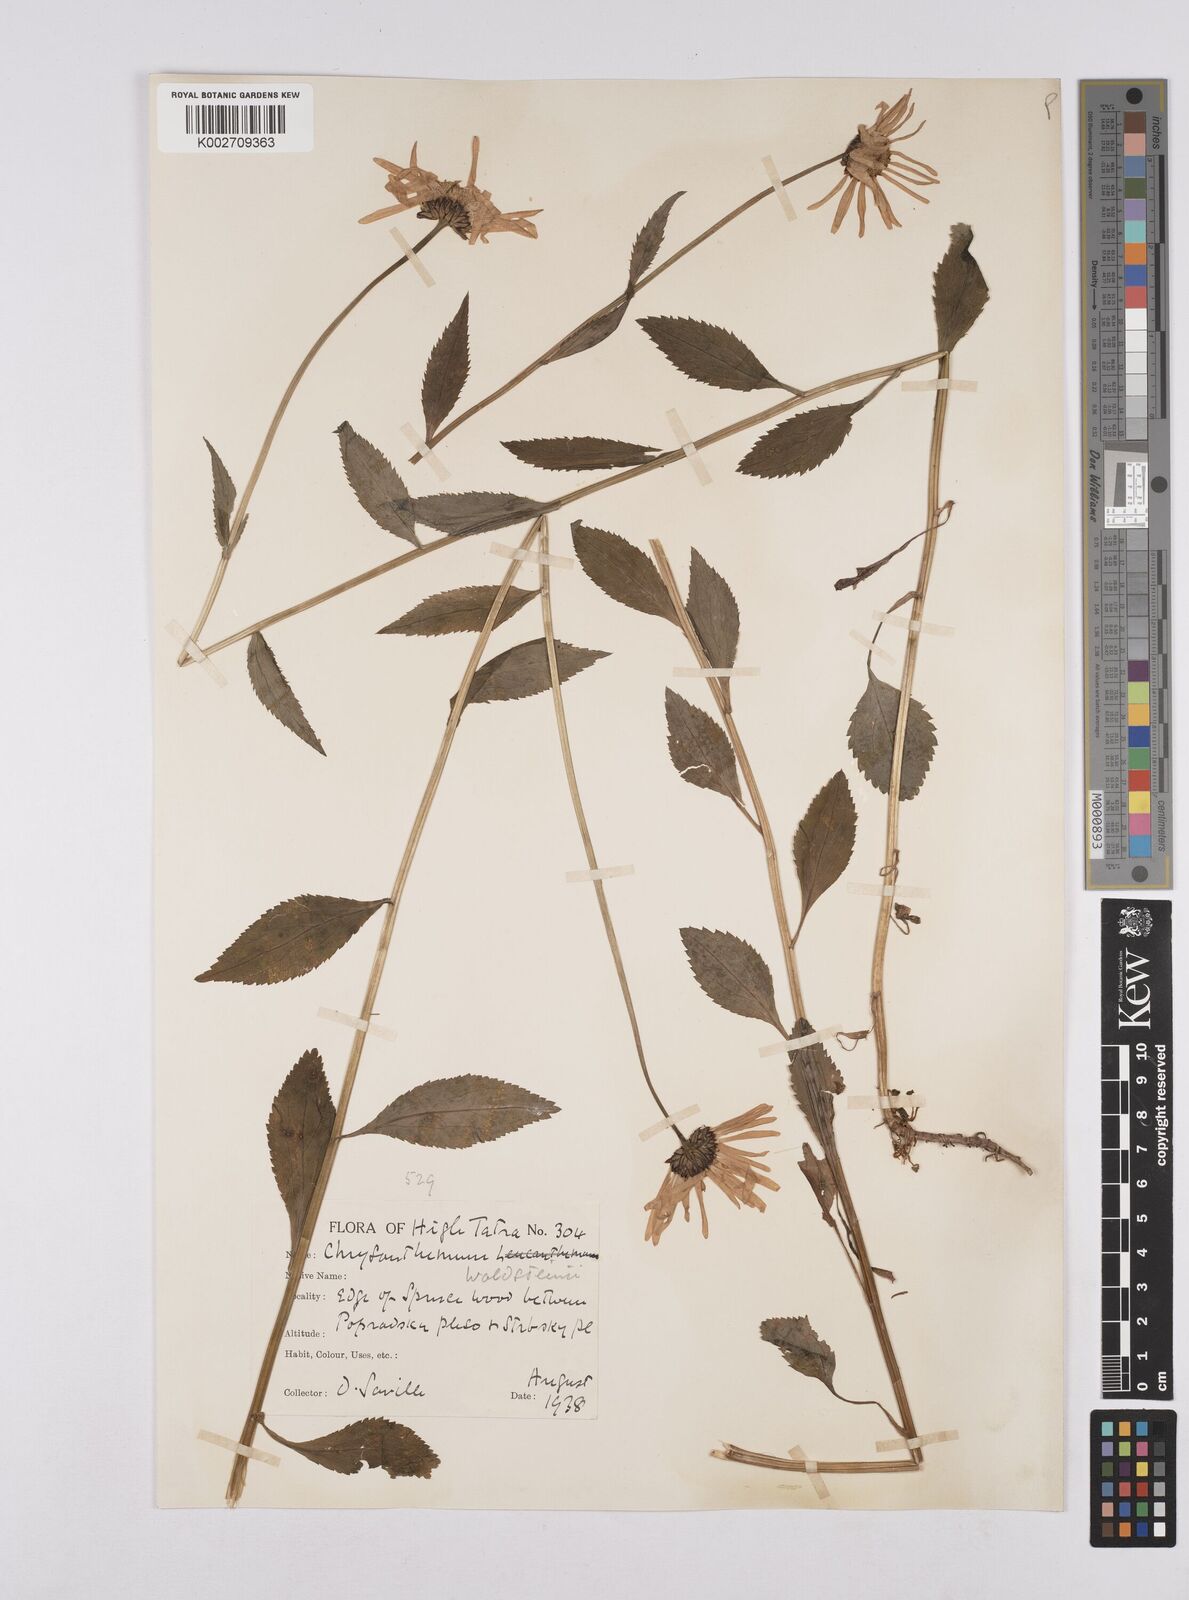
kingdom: Plantae
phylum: Tracheophyta
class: Magnoliopsida
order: Asterales
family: Asteraceae
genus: Leucanthemum
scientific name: Leucanthemum rotundifolium
